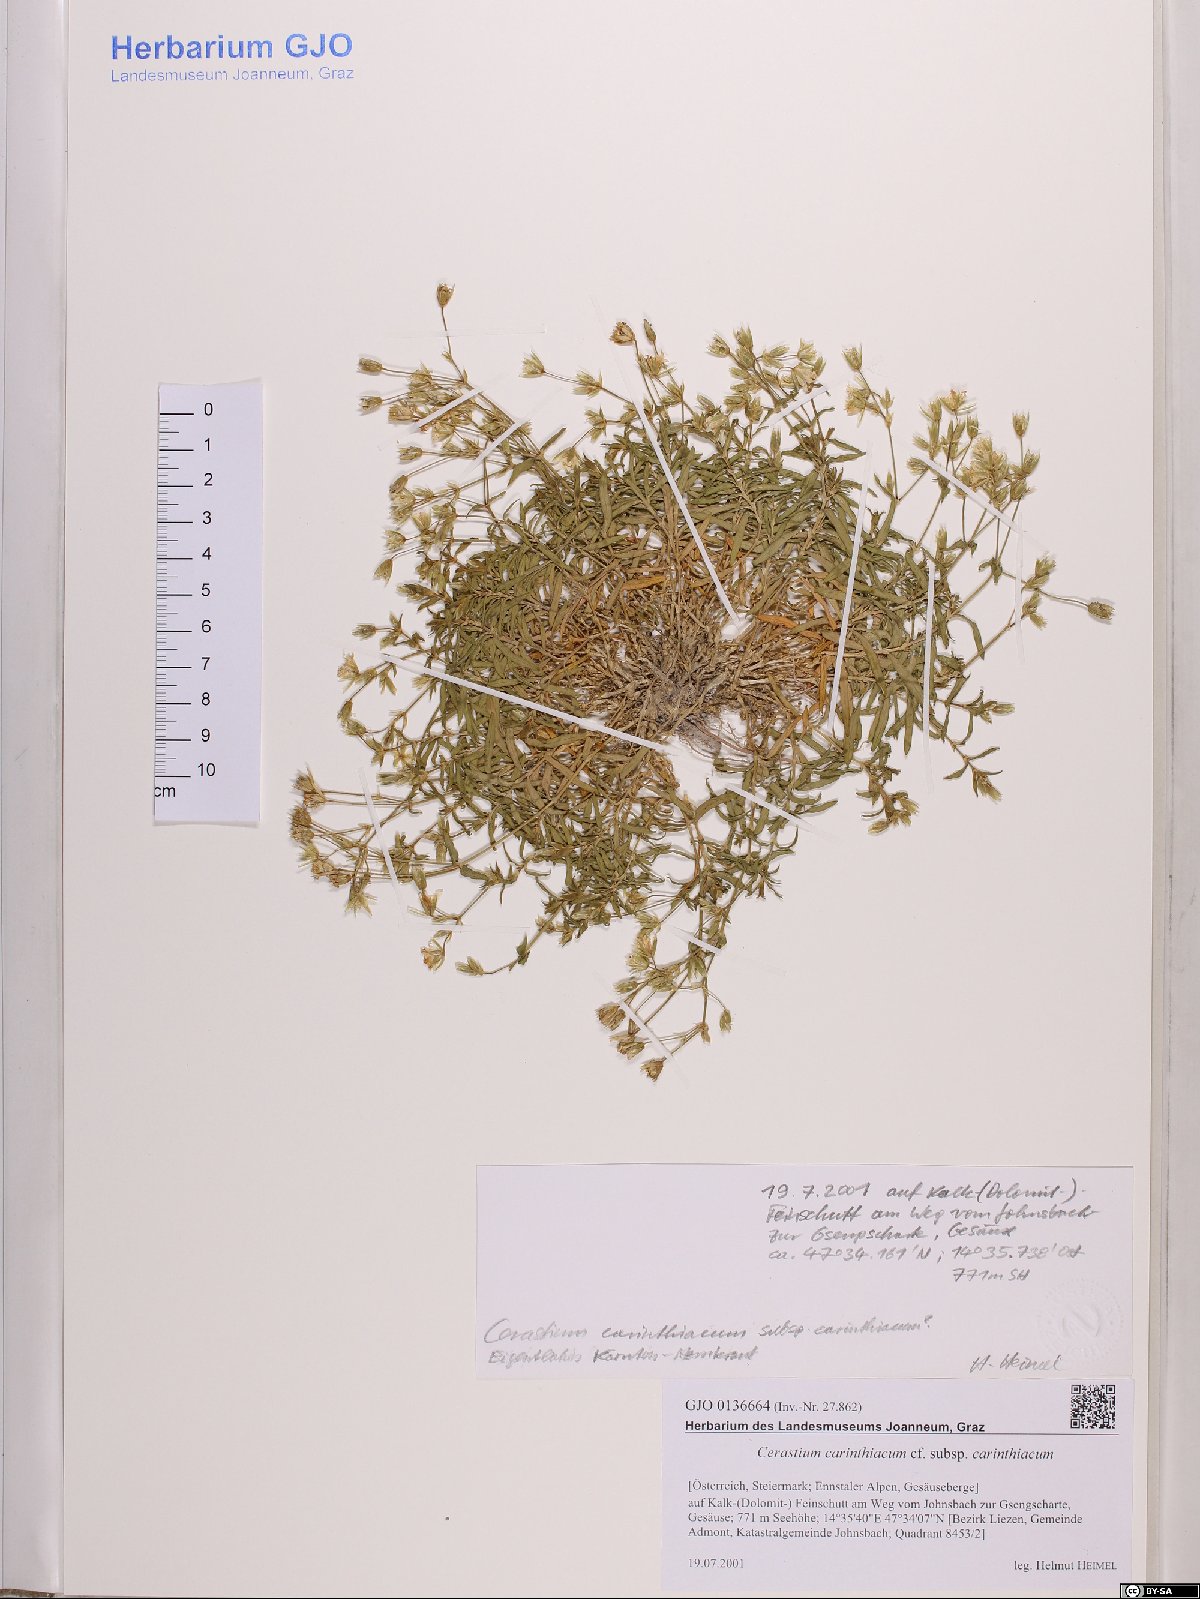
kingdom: Plantae
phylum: Tracheophyta
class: Magnoliopsida
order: Caryophyllales
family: Caryophyllaceae
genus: Cerastium
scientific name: Cerastium carinthiacum
